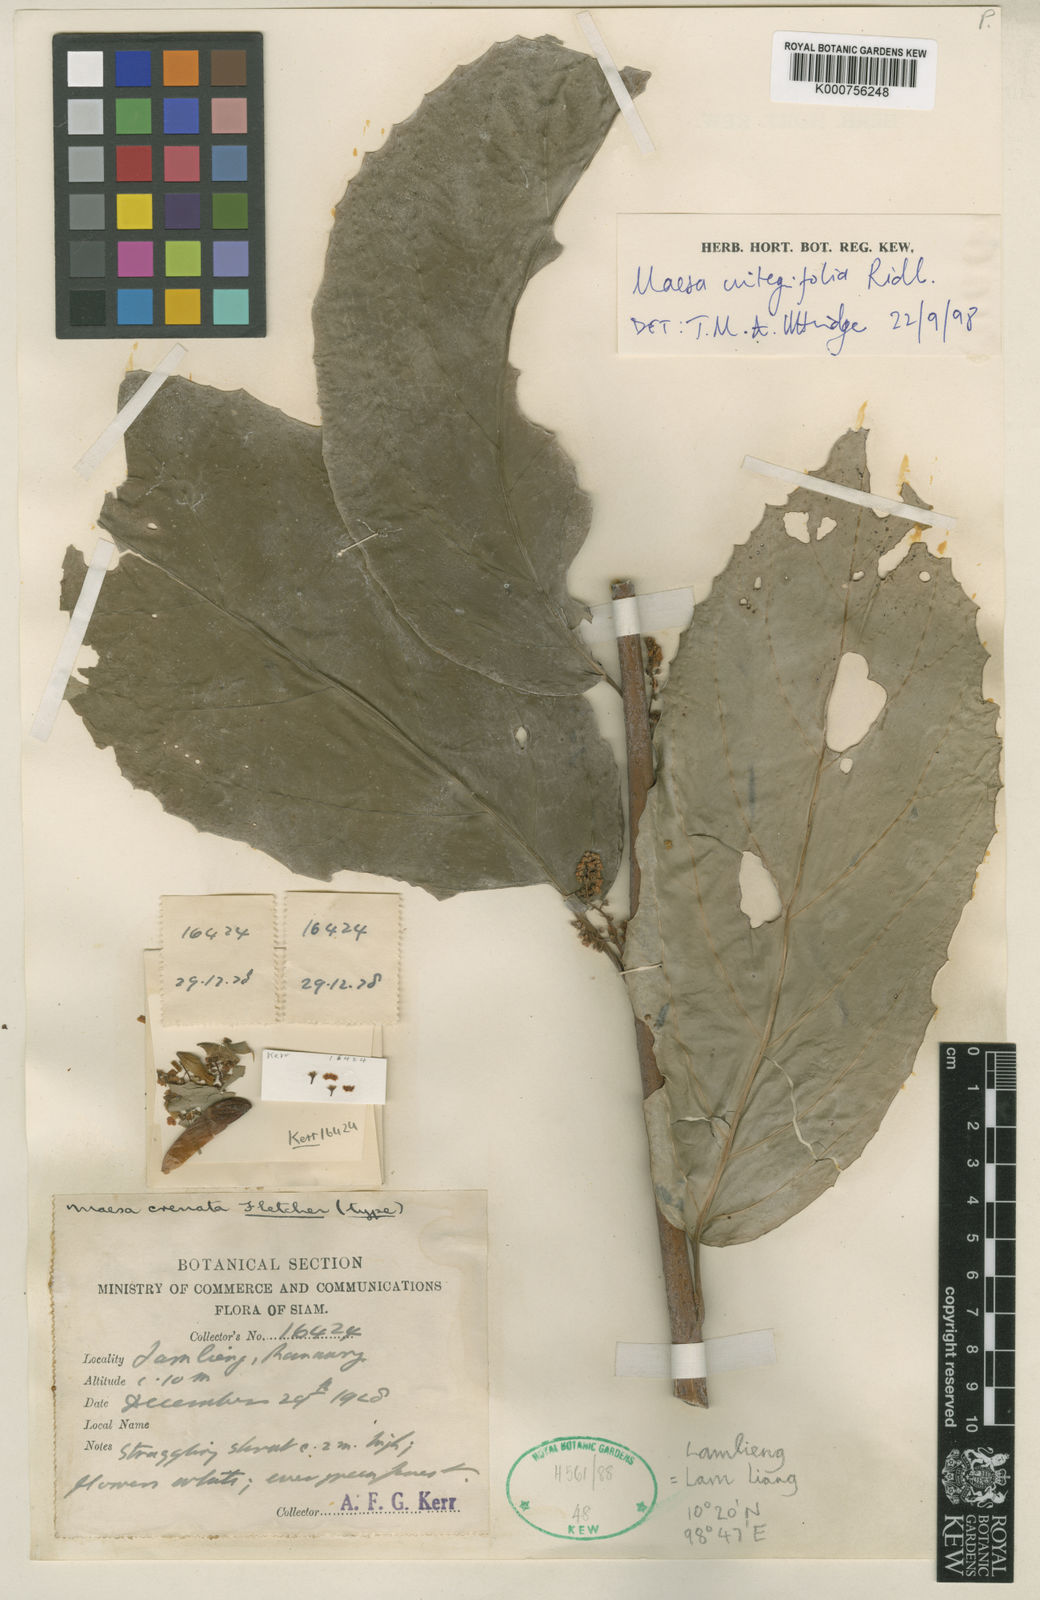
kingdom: Plantae
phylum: Tracheophyta
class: Magnoliopsida
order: Ericales
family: Primulaceae
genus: Maesa
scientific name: Maesa integrifolia
